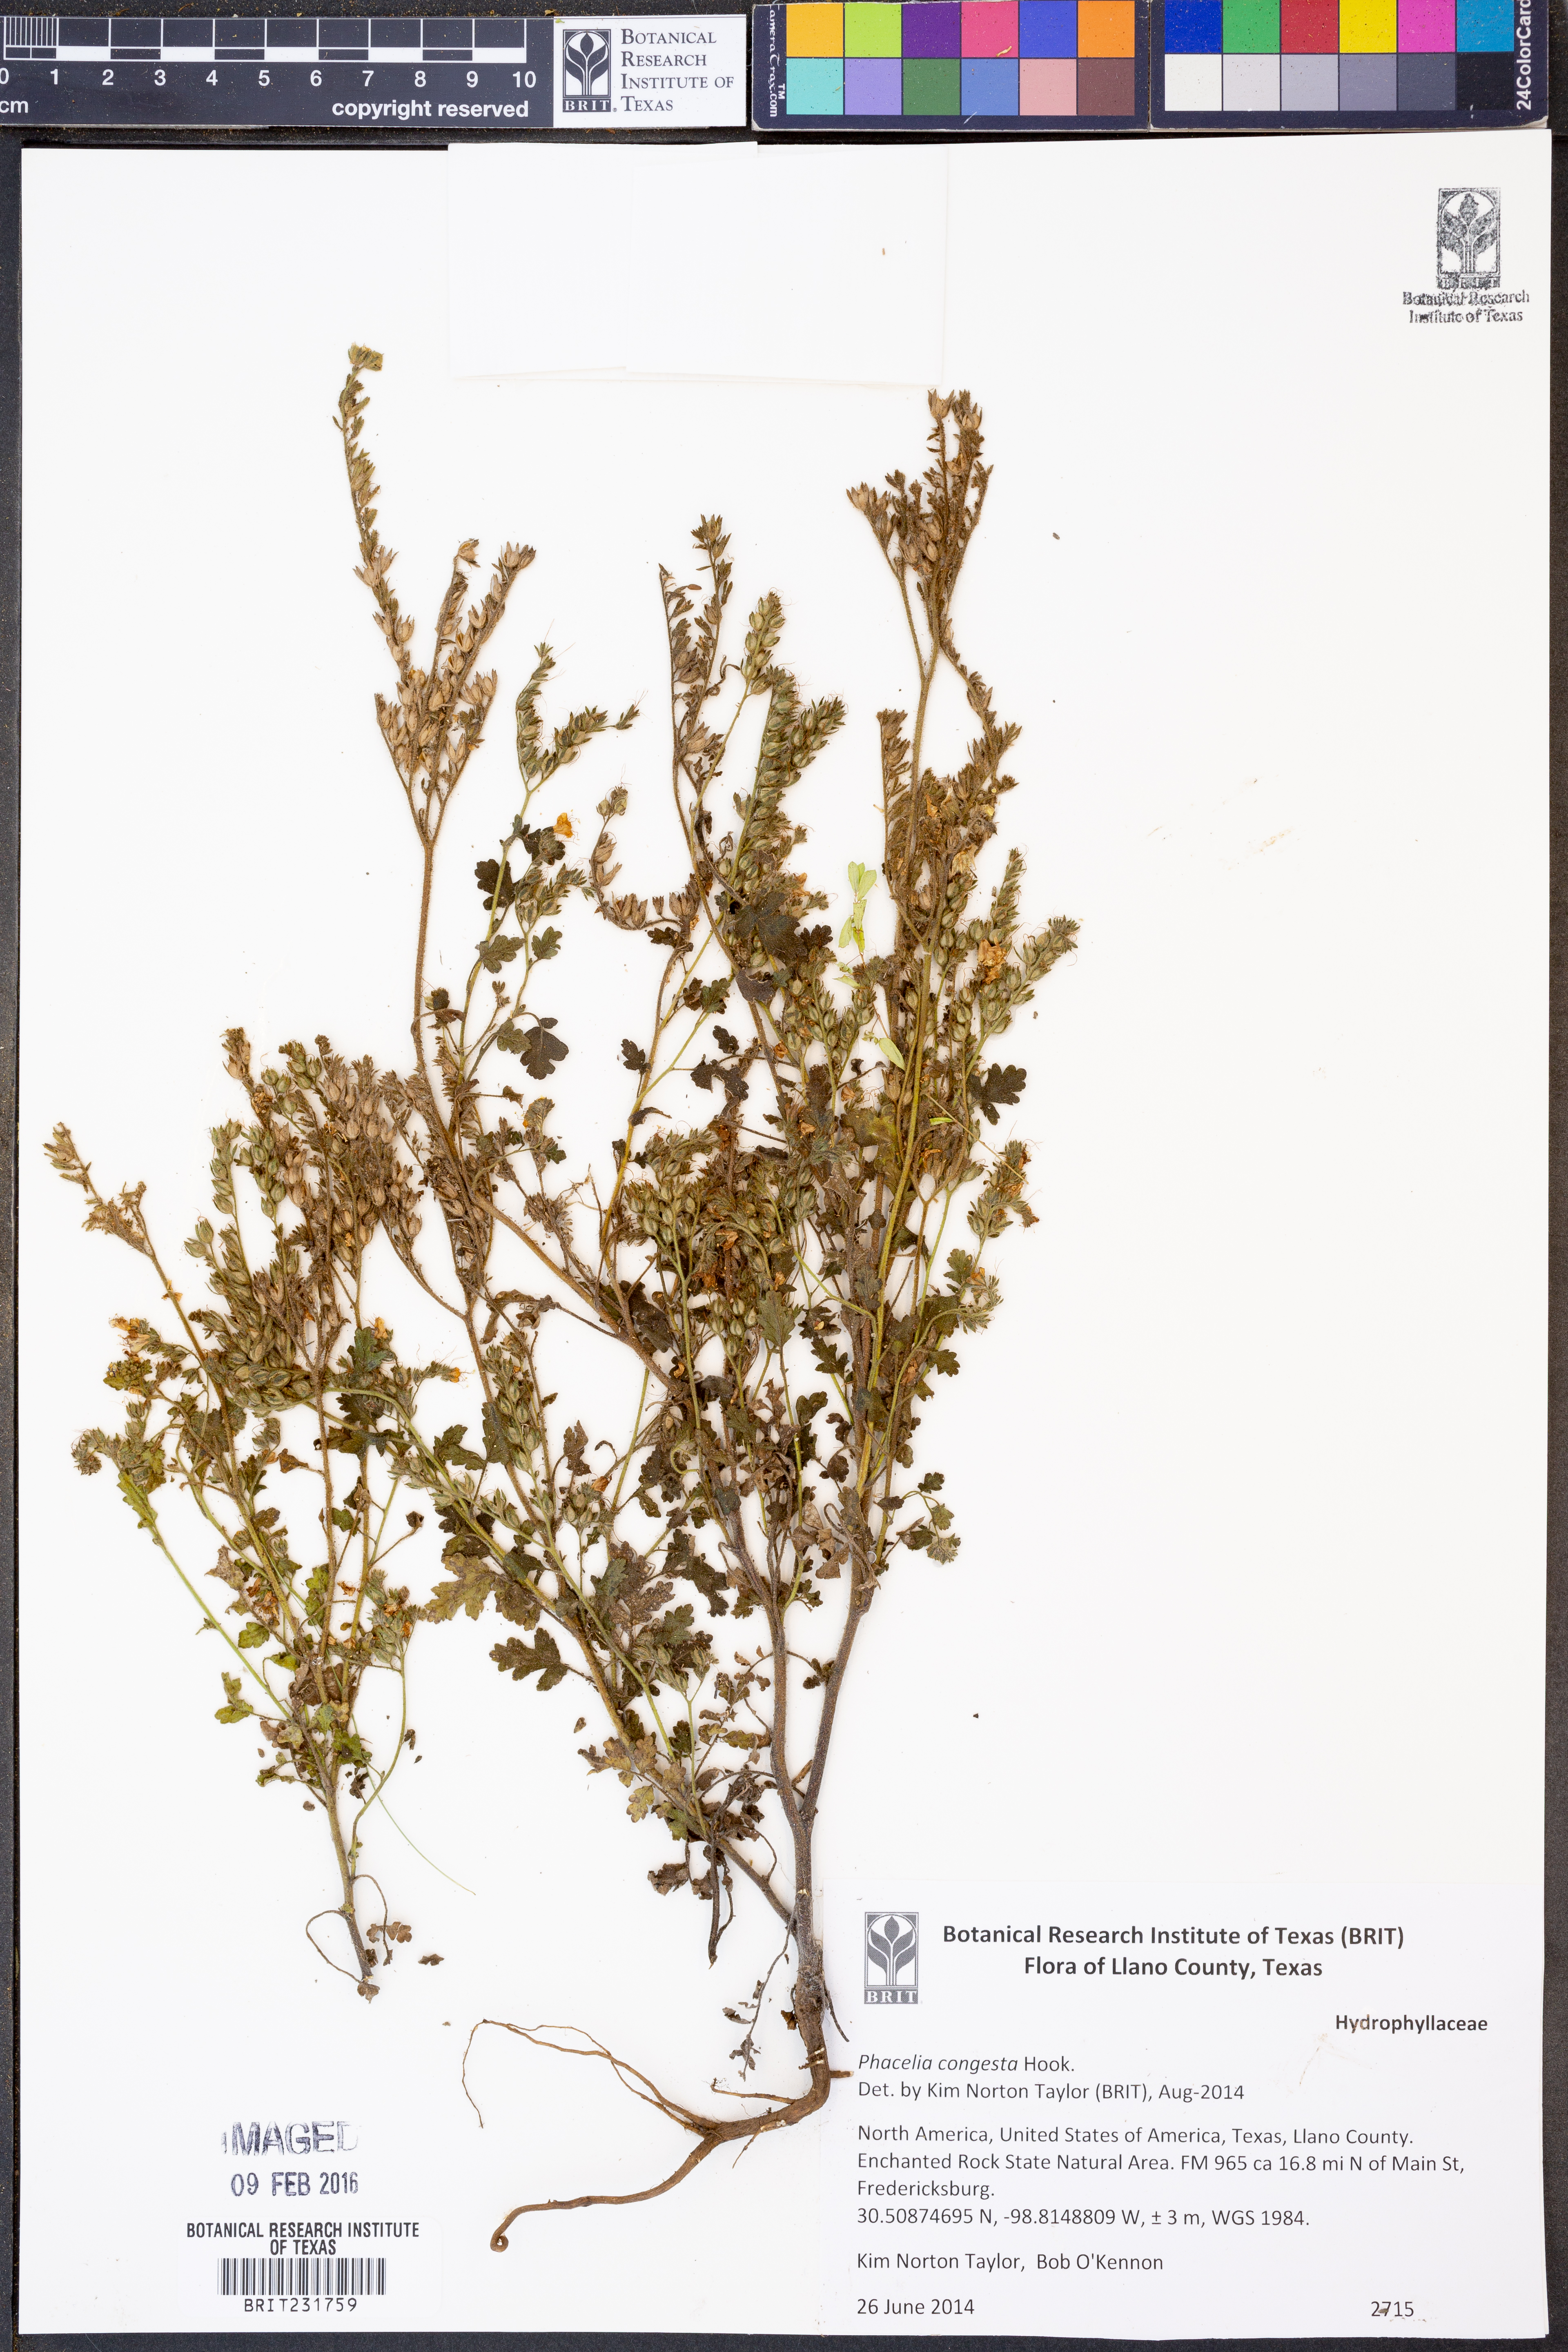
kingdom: Plantae
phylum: Tracheophyta
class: Magnoliopsida
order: Boraginales
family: Hydrophyllaceae
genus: Phacelia
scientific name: Phacelia congesta
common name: Blue curls
